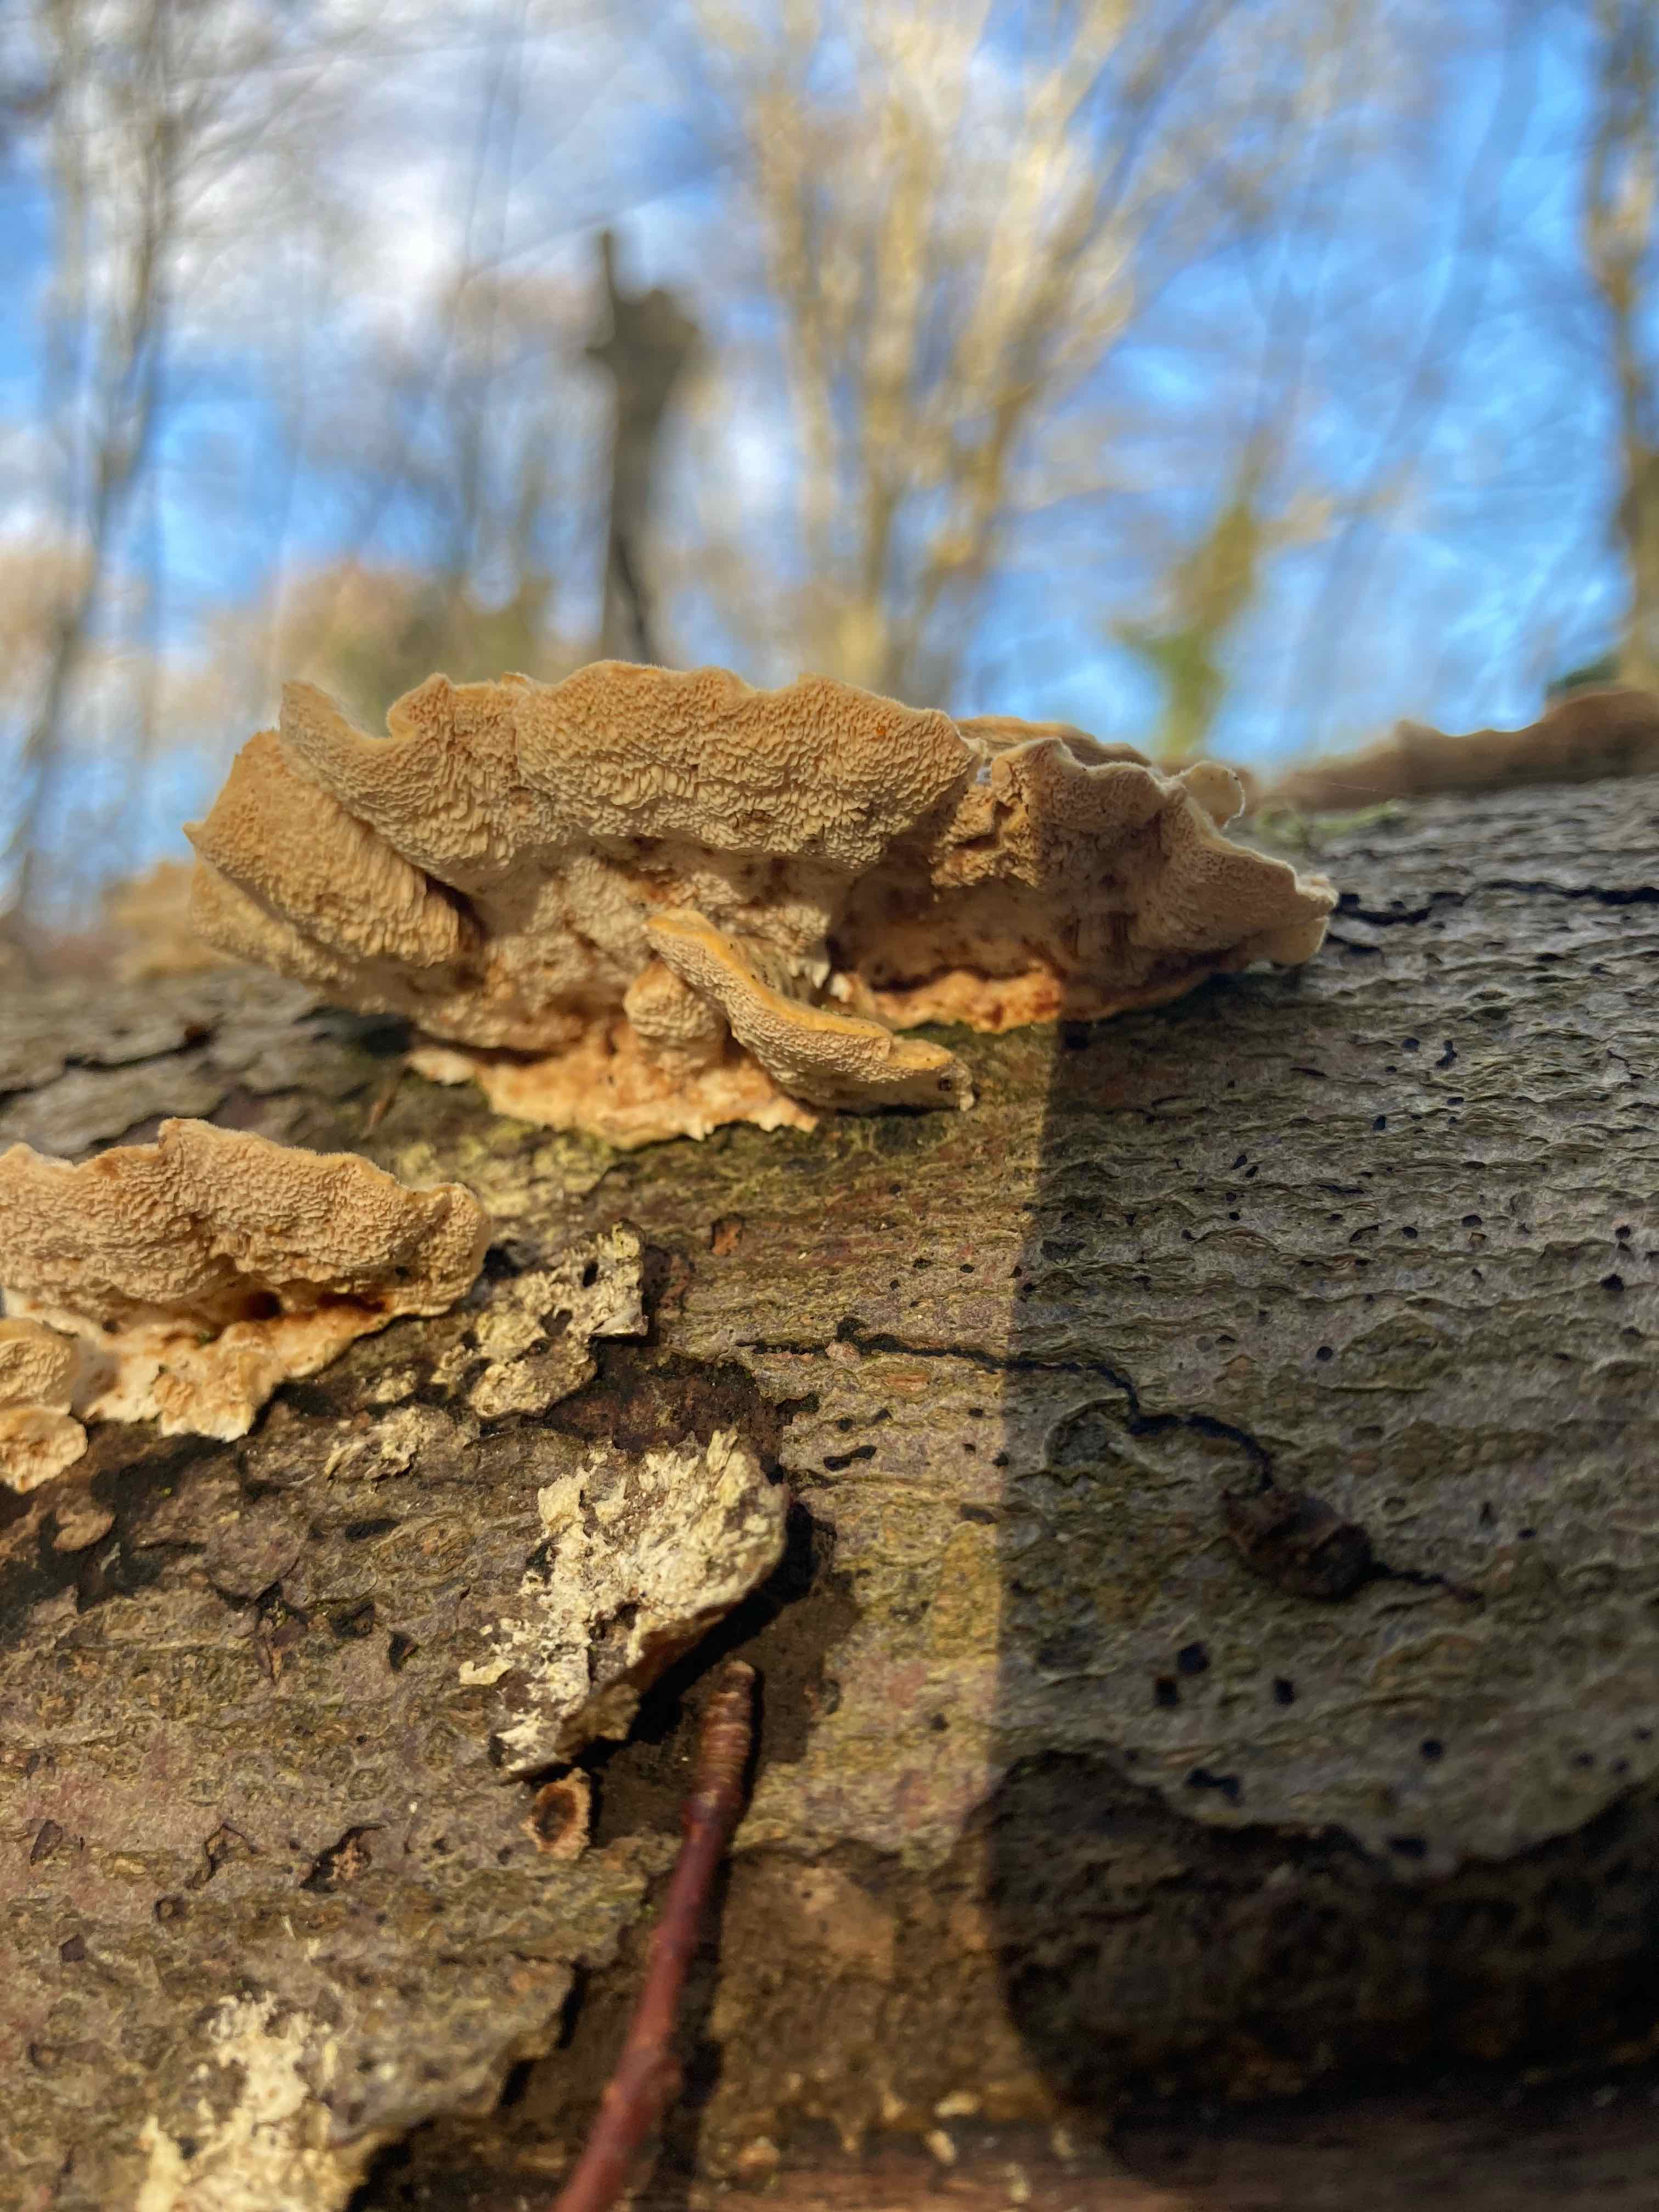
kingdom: Fungi
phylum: Basidiomycota
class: Agaricomycetes
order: Polyporales
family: Polyporaceae
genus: Trametes
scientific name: Trametes versicolor
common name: broget læderporesvamp
